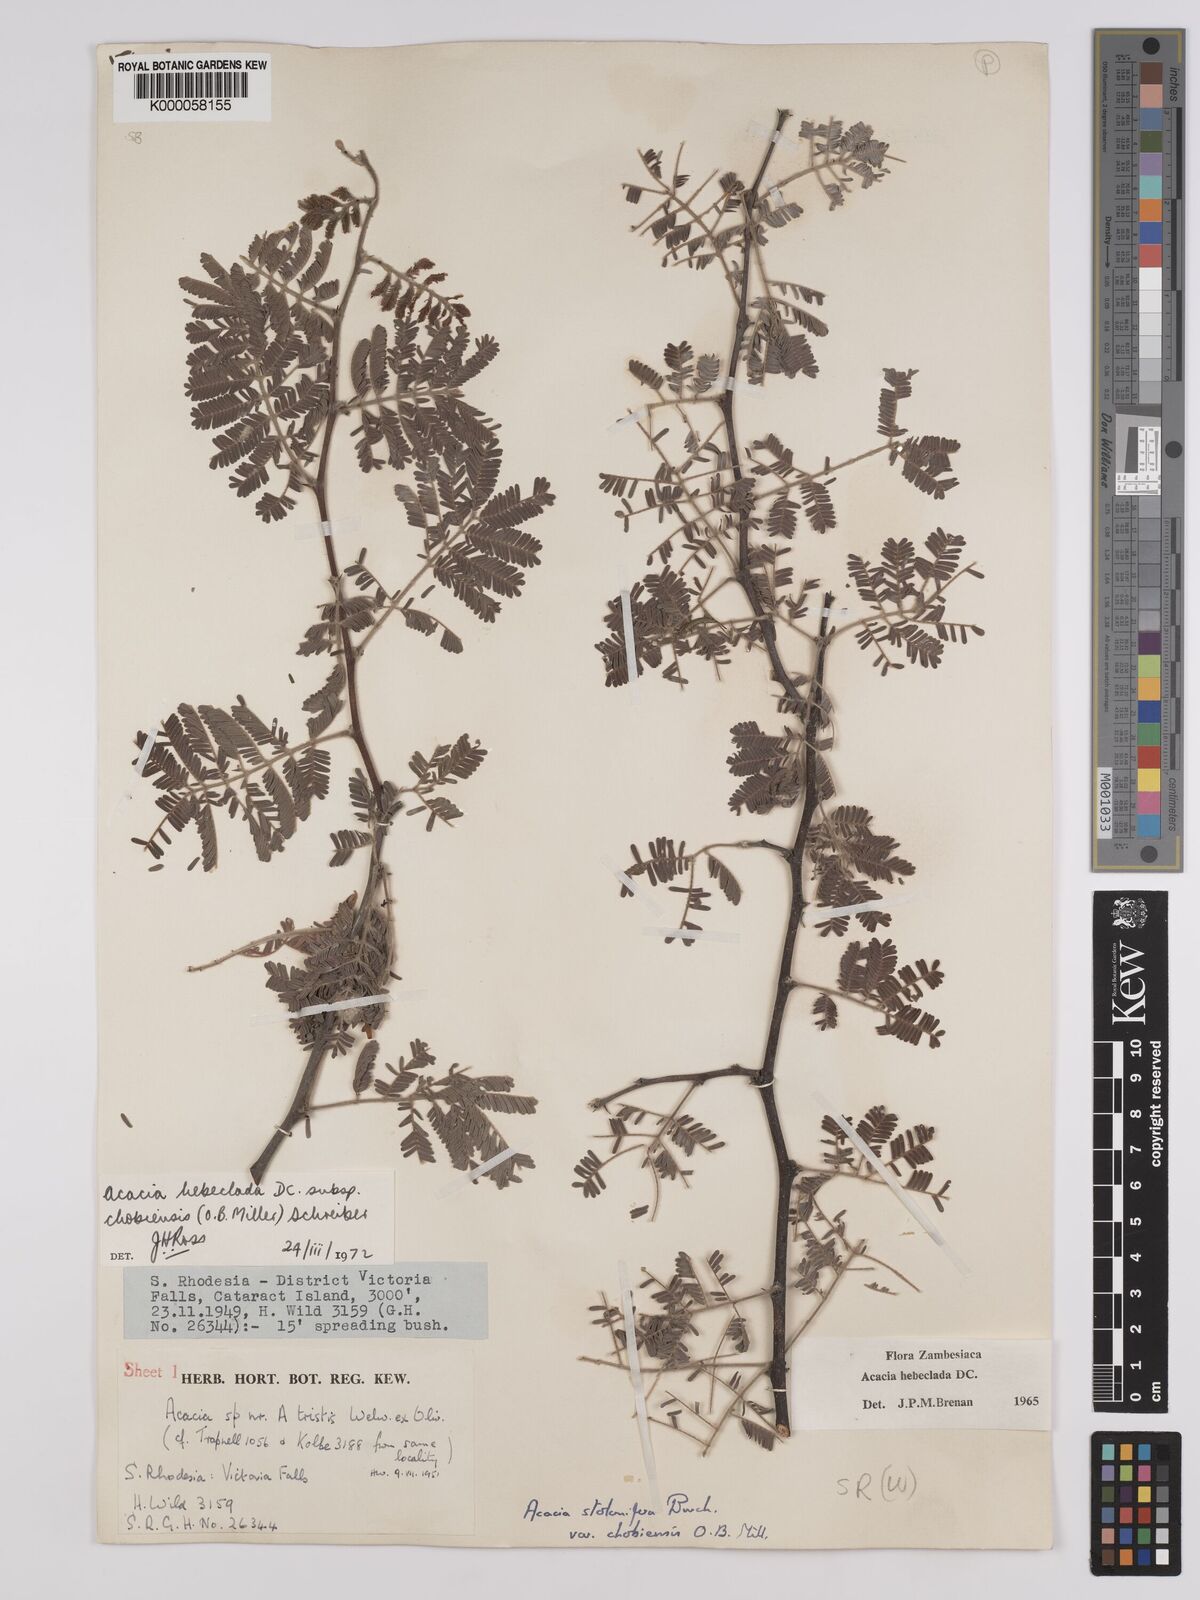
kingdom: Plantae
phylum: Tracheophyta
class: Magnoliopsida
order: Fabales
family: Fabaceae
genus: Vachellia
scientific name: Vachellia hebeclada
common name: Candle thorn
